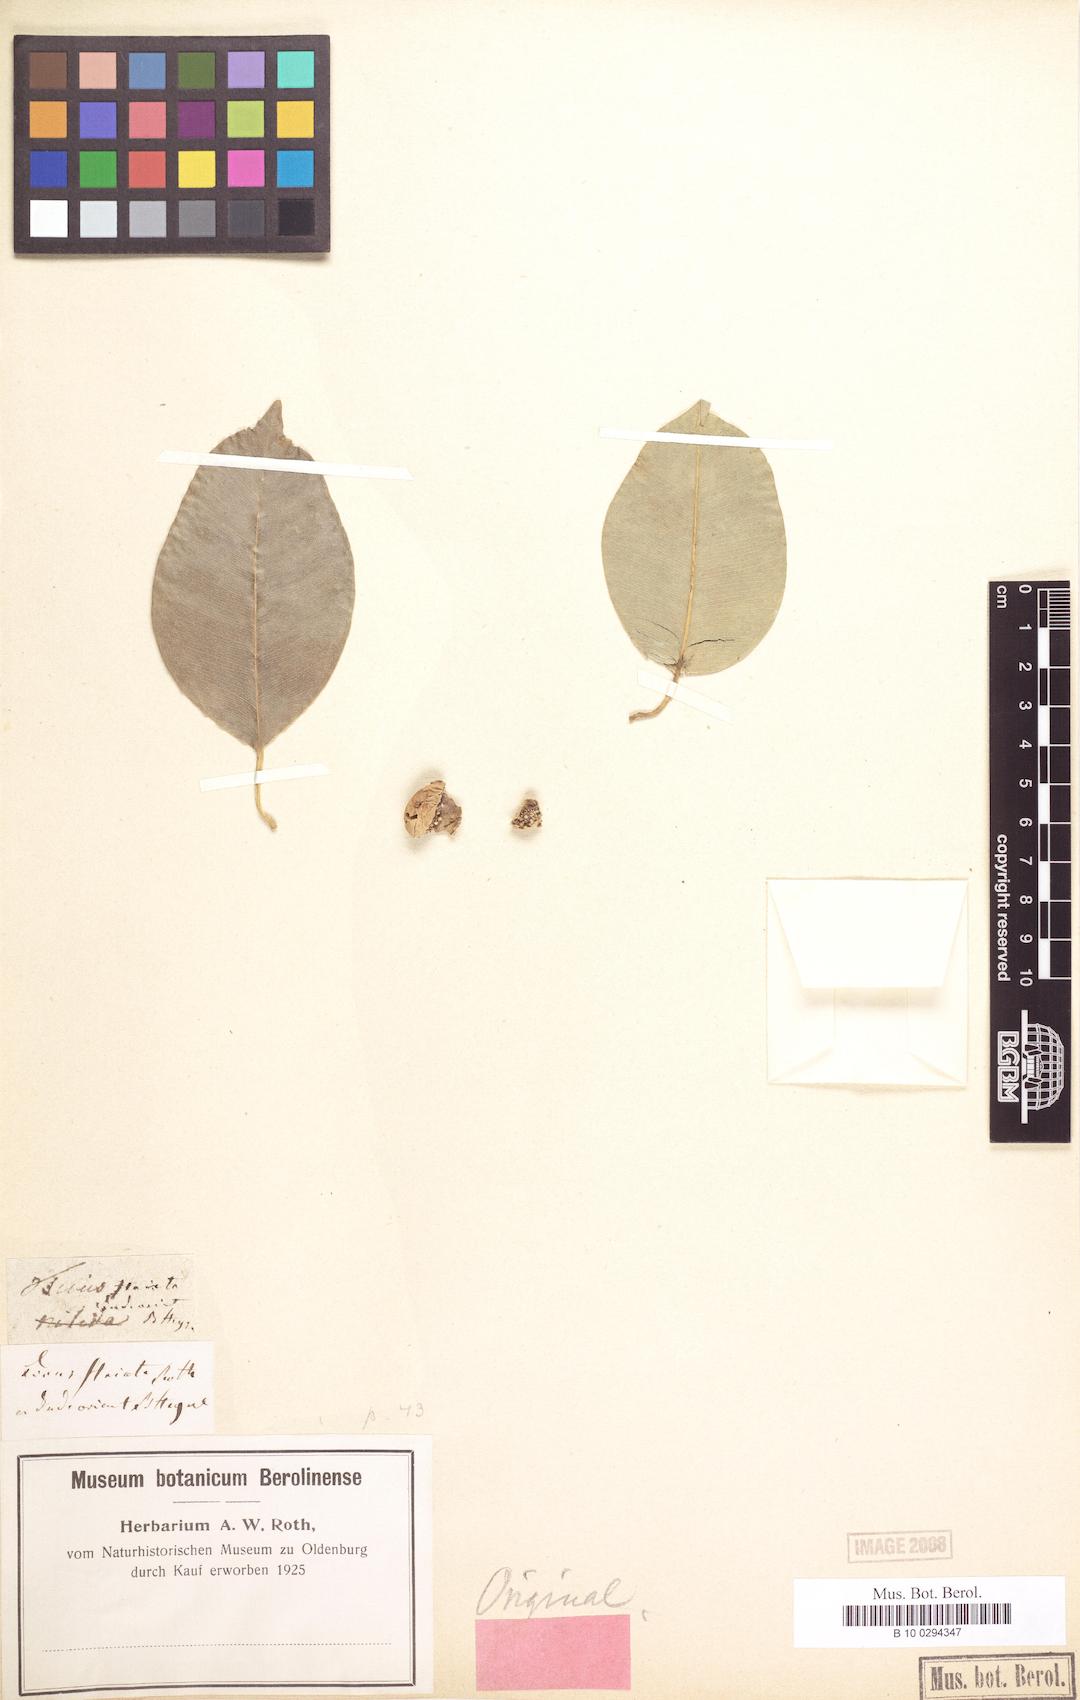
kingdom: Plantae
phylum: Tracheophyta
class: Magnoliopsida
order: Rosales
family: Moraceae
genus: Ficus
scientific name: Ficus benjamina
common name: Weeping fig
